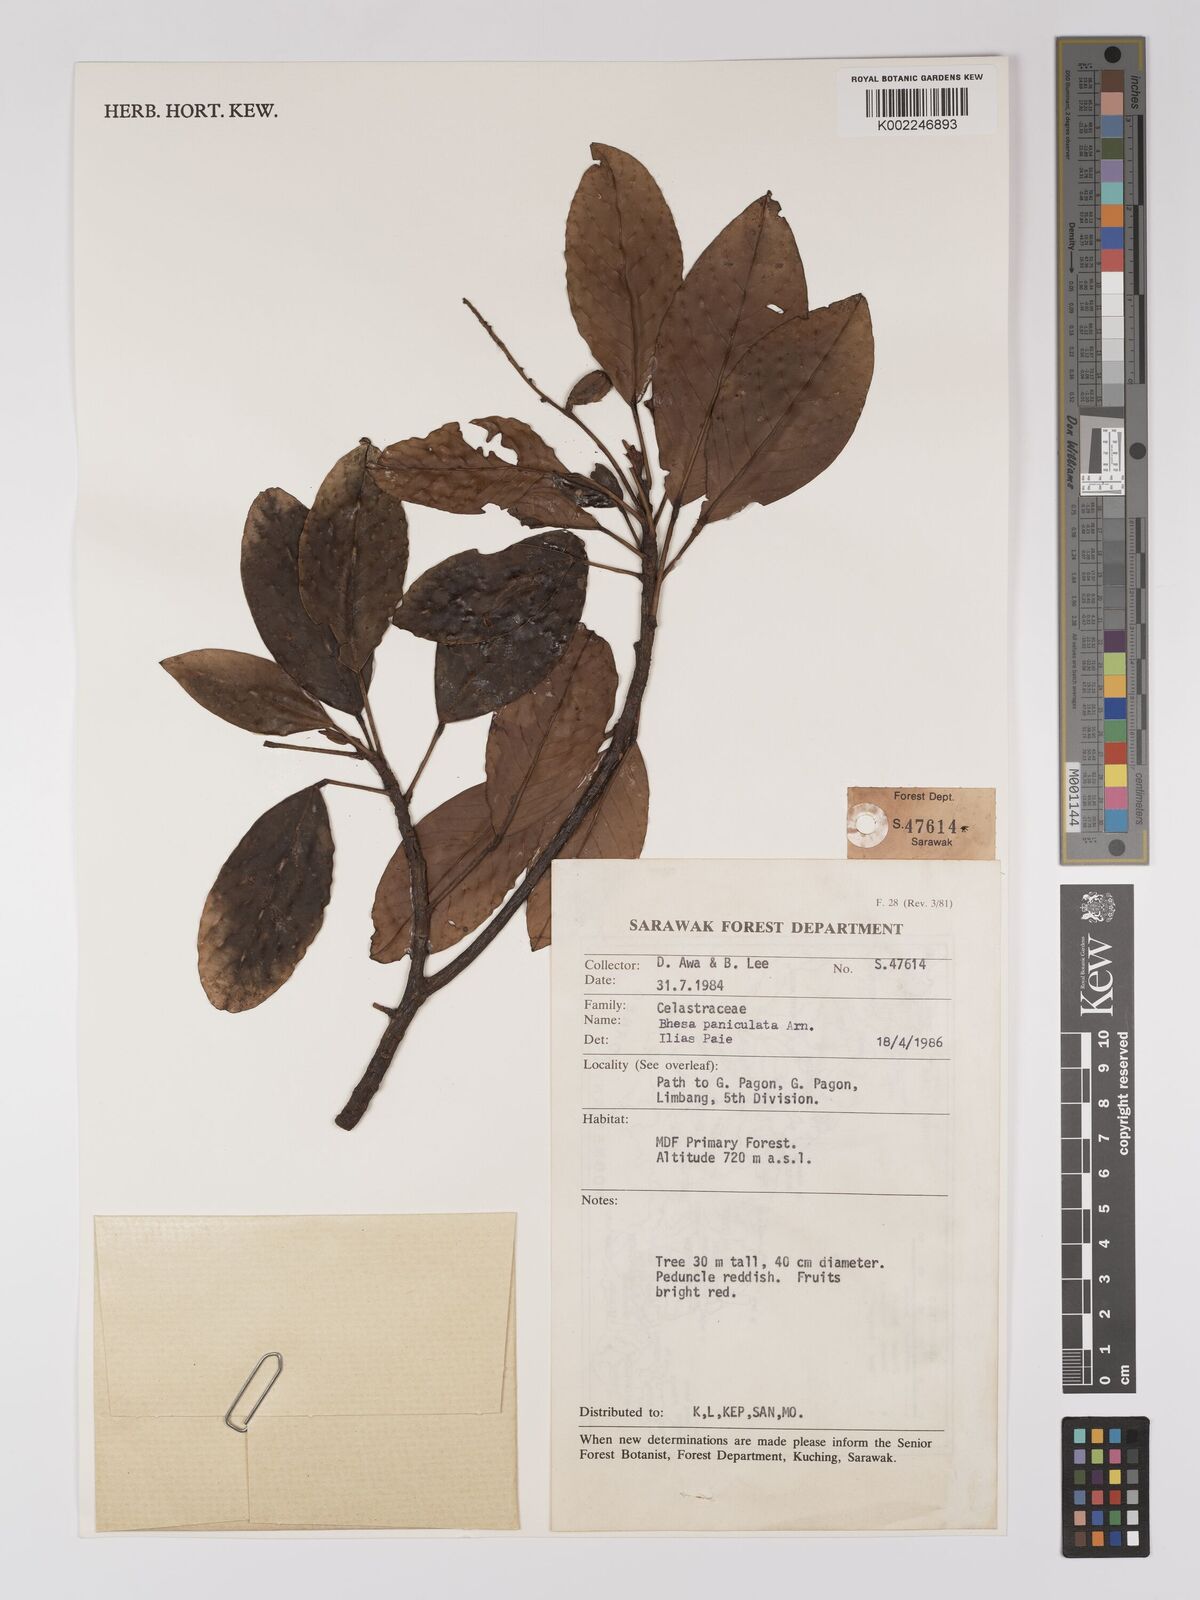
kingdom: Plantae
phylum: Tracheophyta
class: Magnoliopsida
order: Malpighiales
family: Centroplacaceae
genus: Bhesa
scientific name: Bhesa paniculata
